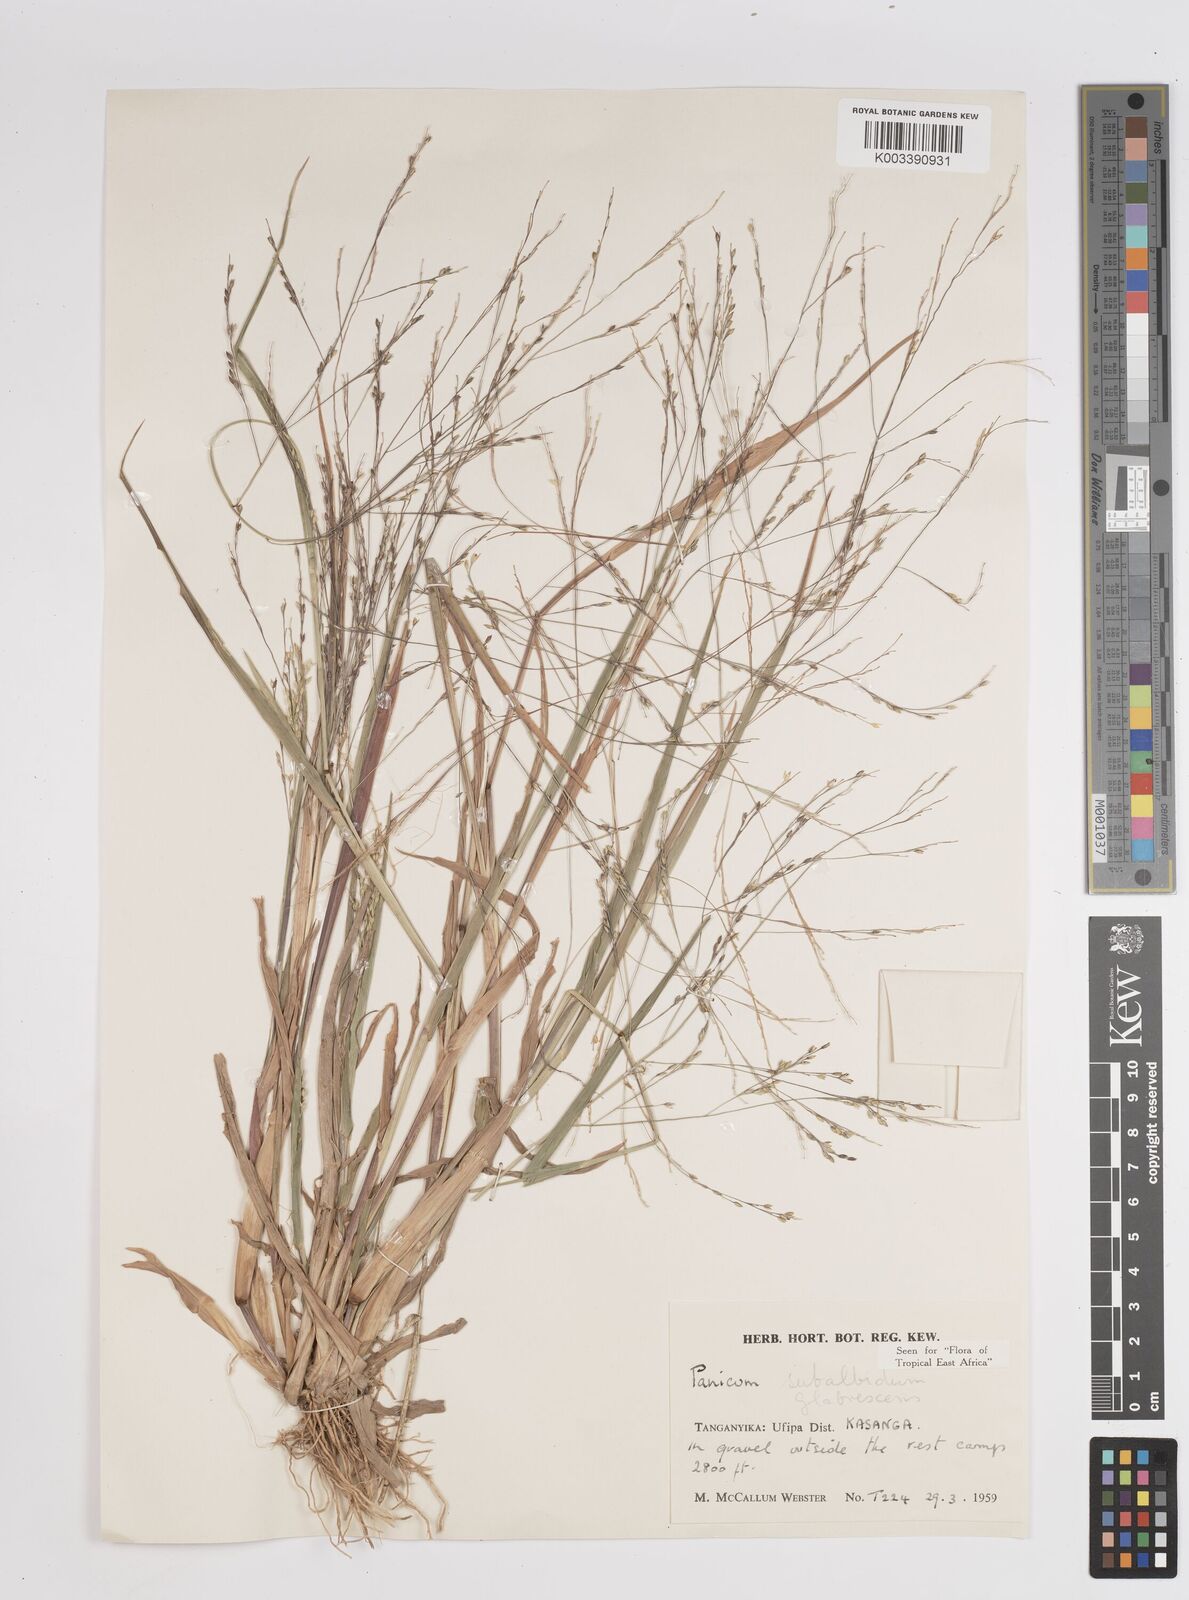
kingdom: Plantae
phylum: Tracheophyta
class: Liliopsida
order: Poales
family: Poaceae
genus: Panicum
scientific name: Panicum subalbidum
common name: Elbow buffalo grass
